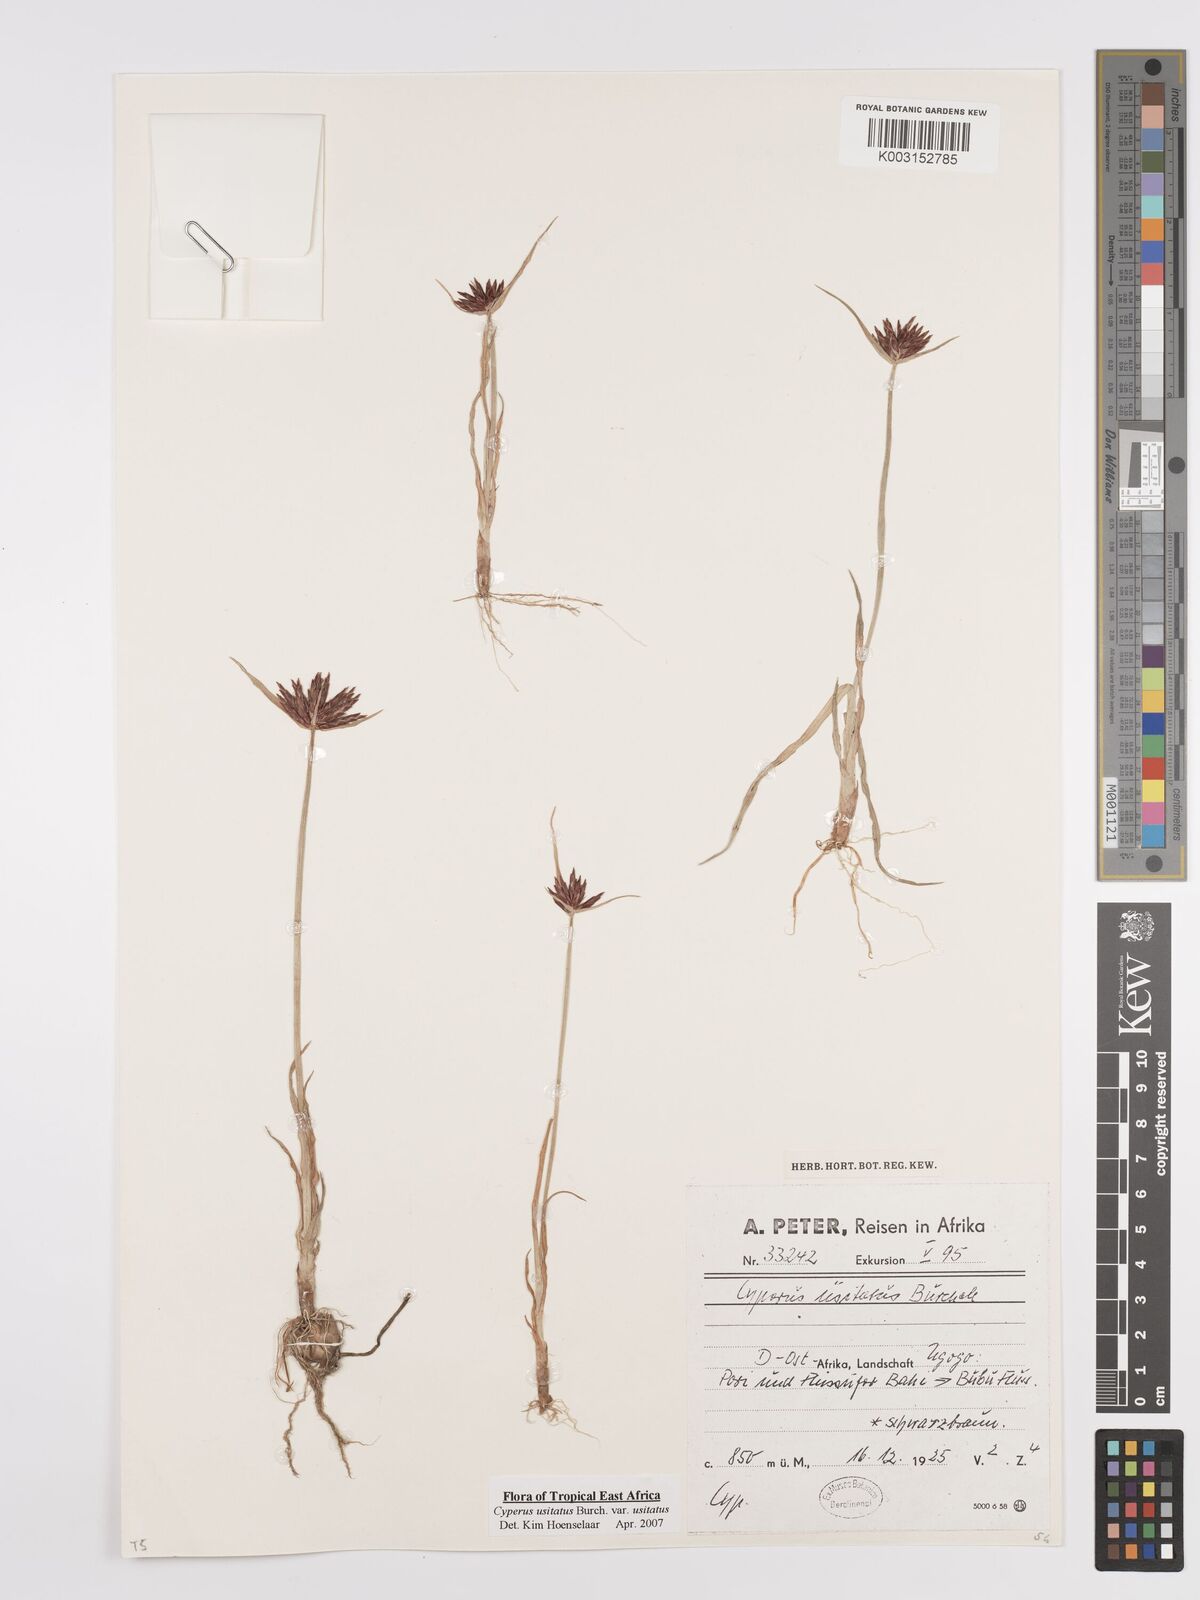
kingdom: Plantae
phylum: Tracheophyta
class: Liliopsida
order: Poales
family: Cyperaceae
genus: Cyperus
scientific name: Cyperus usitatus
